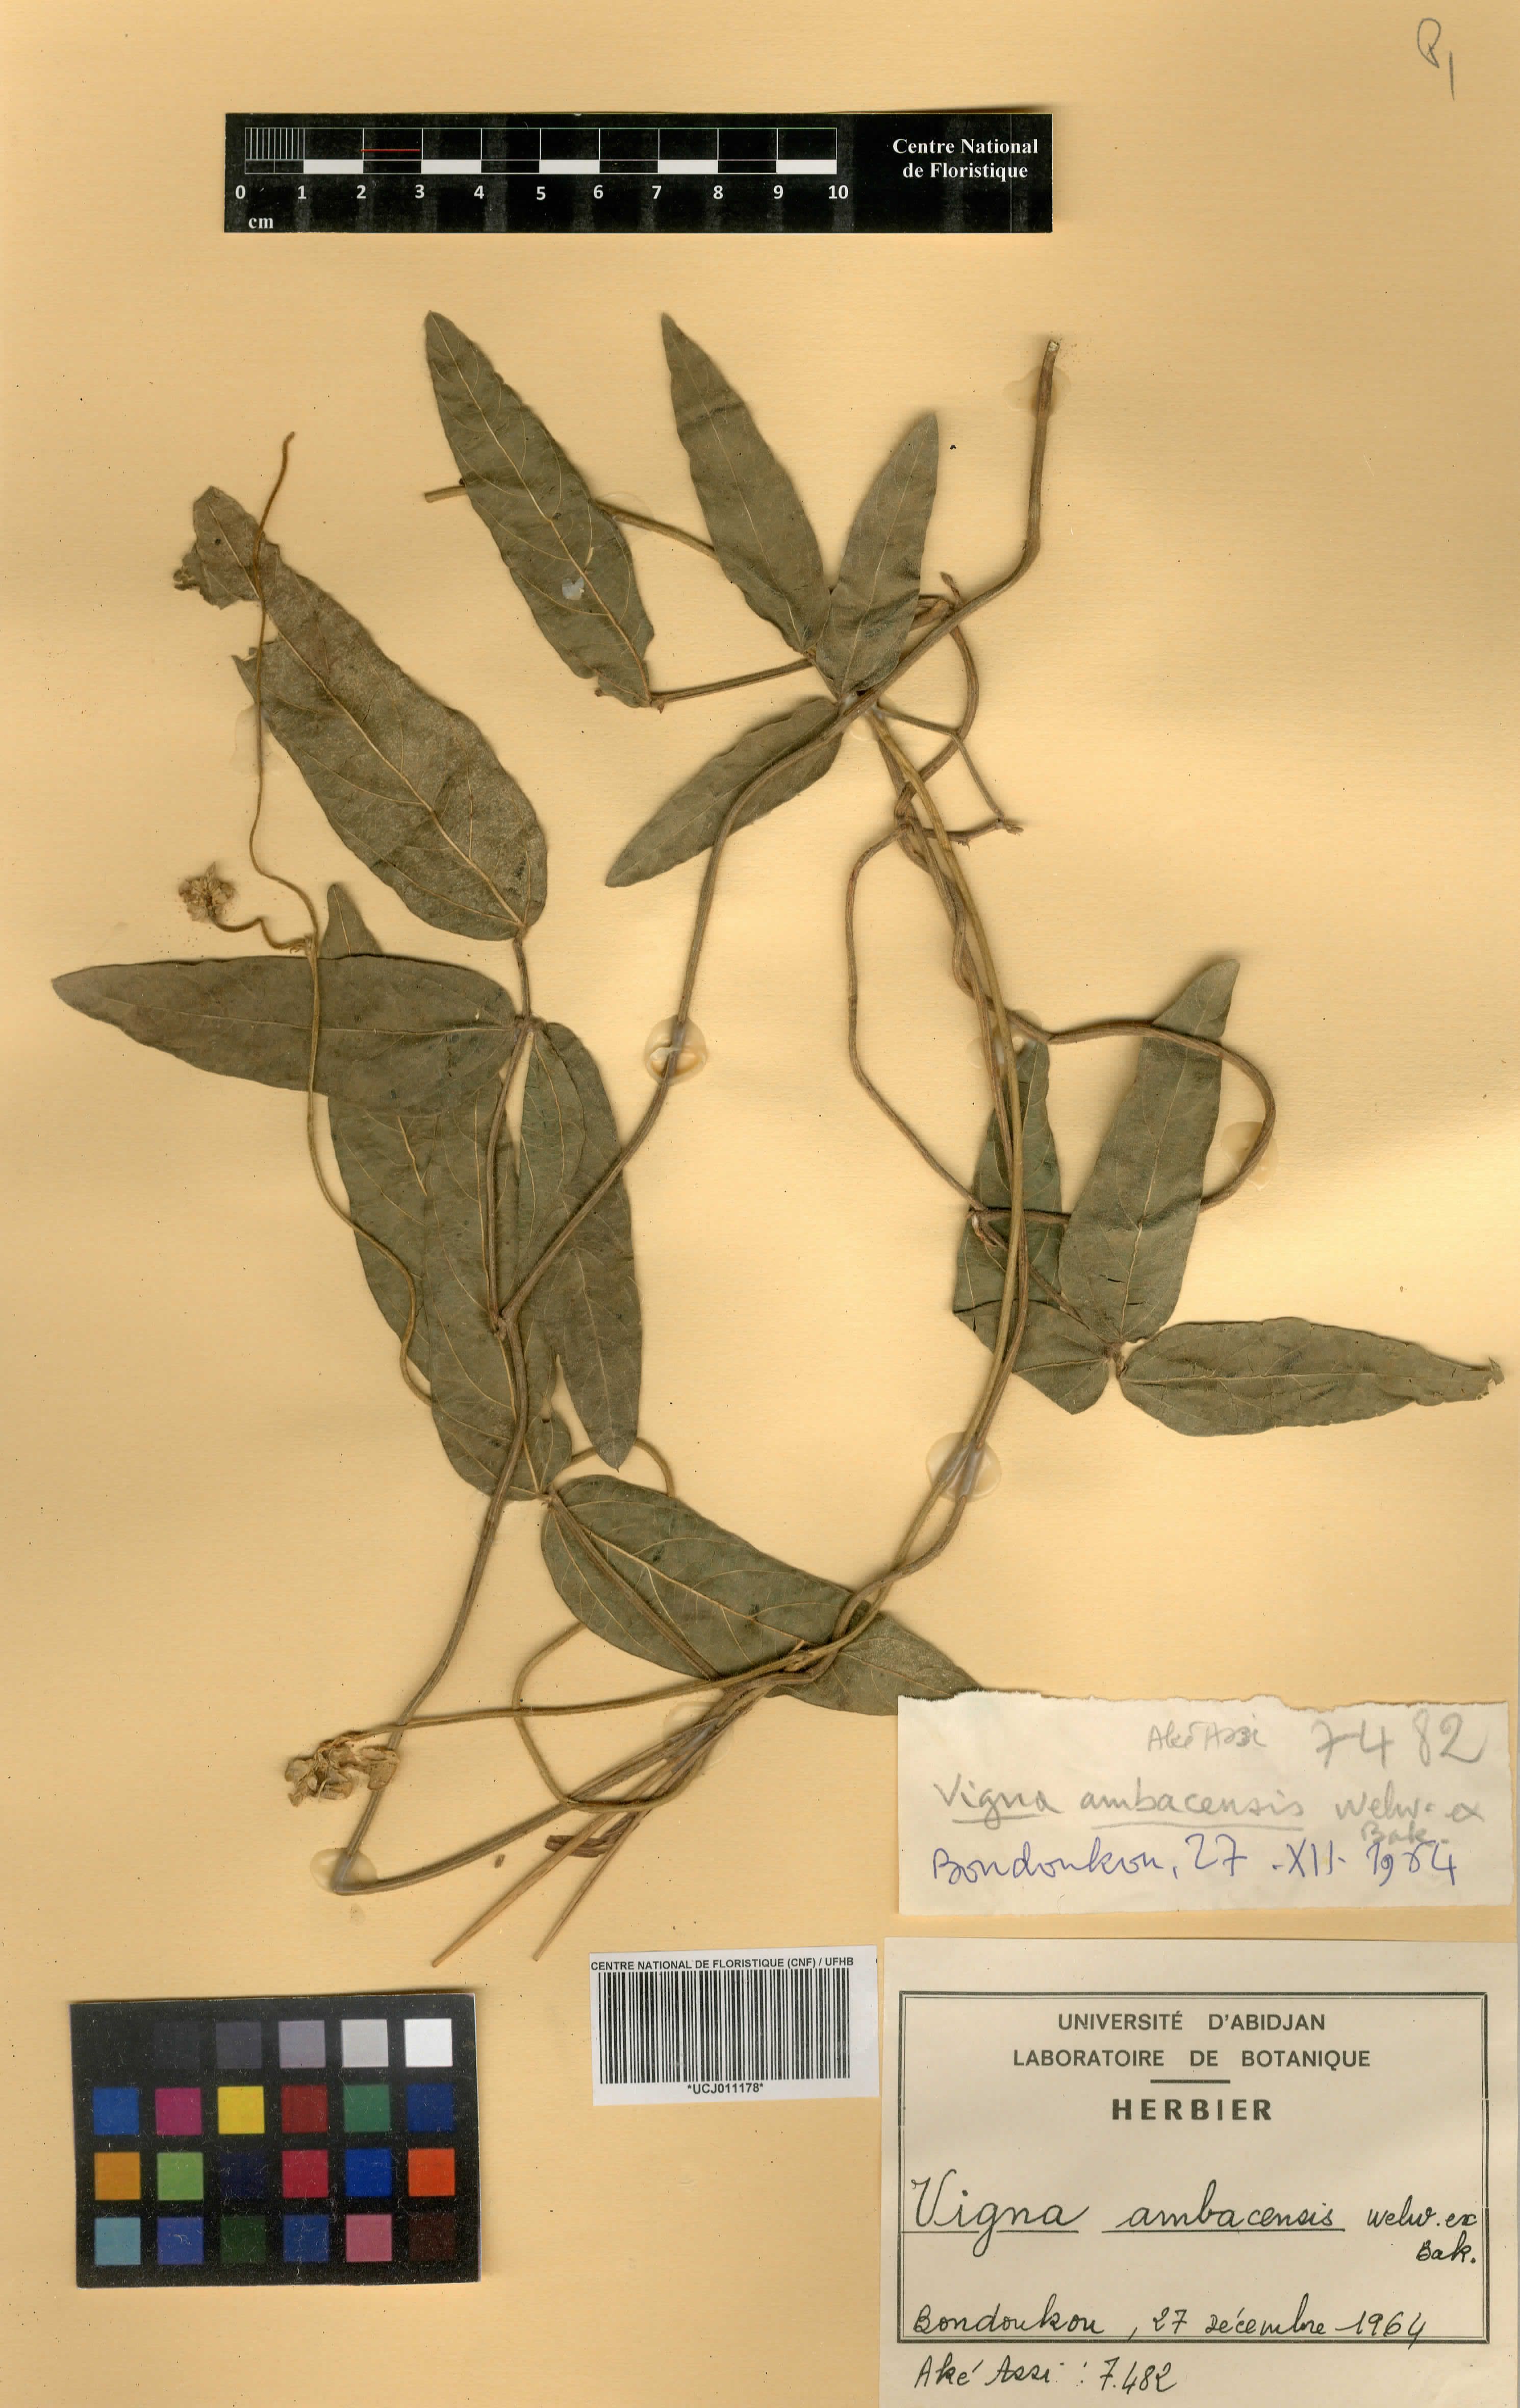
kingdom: Plantae
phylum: Tracheophyta
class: Magnoliopsida
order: Fabales
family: Fabaceae
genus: Vigna
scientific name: Vigna ambacensis
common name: Tsarkiyan zomo
